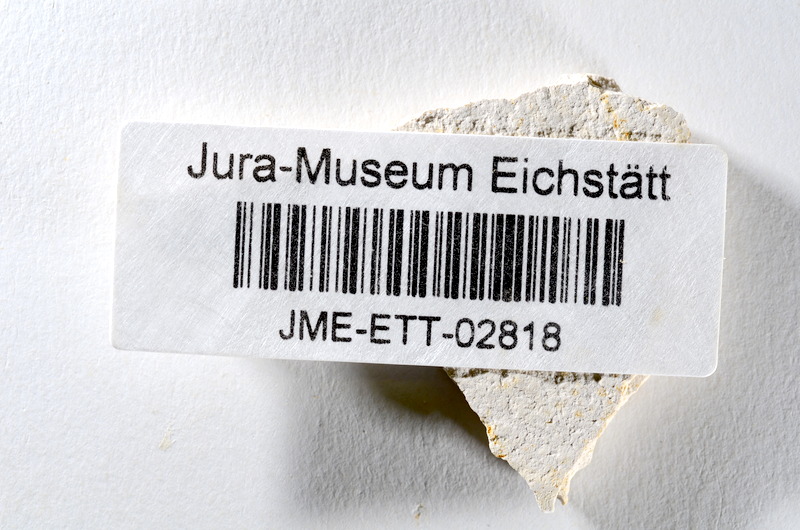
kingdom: Animalia
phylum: Chordata
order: Salmoniformes
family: Orthogonikleithridae
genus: Orthogonikleithrus
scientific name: Orthogonikleithrus hoelli
